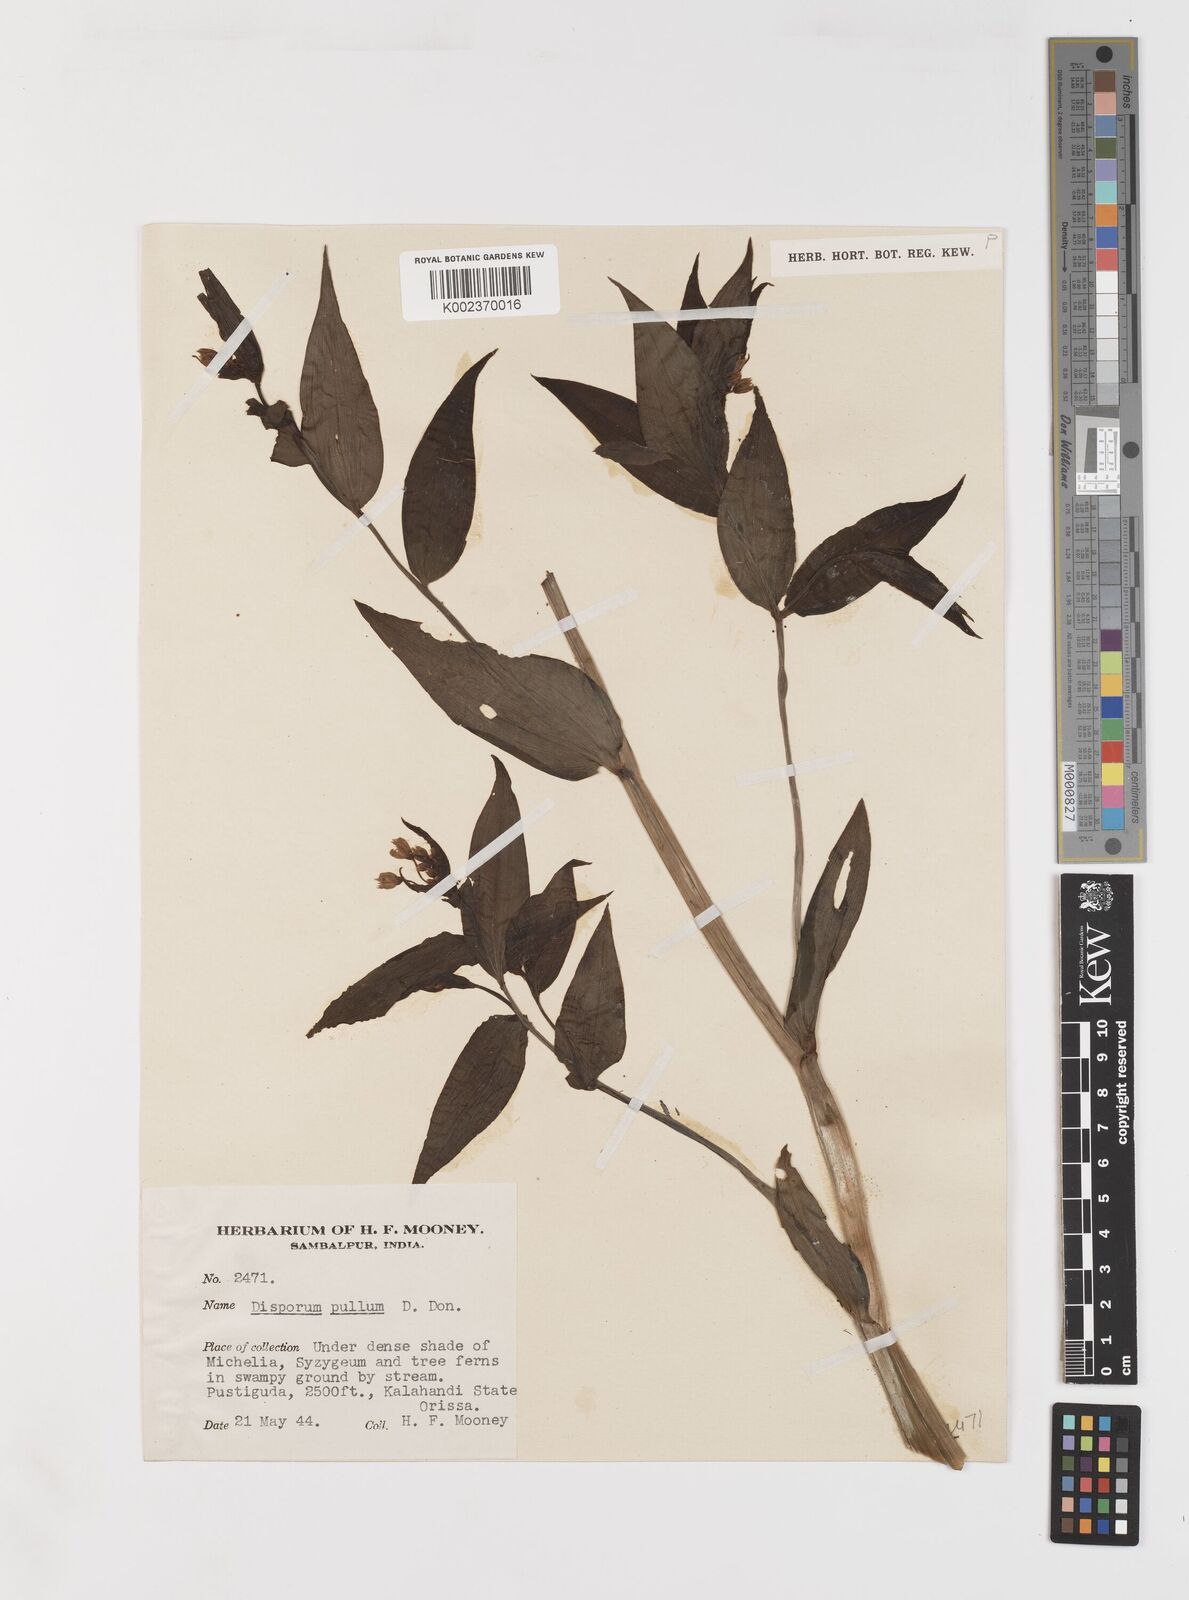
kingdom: Plantae
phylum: Tracheophyta
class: Liliopsida
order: Liliales
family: Colchicaceae
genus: Disporum
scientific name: Disporum cantoniense
